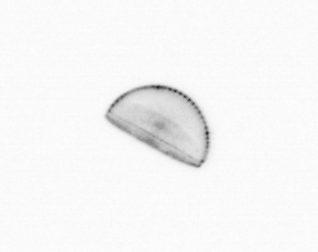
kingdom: Chromista
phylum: Ochrophyta
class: Bacillariophyceae
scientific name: Bacillariophyceae
